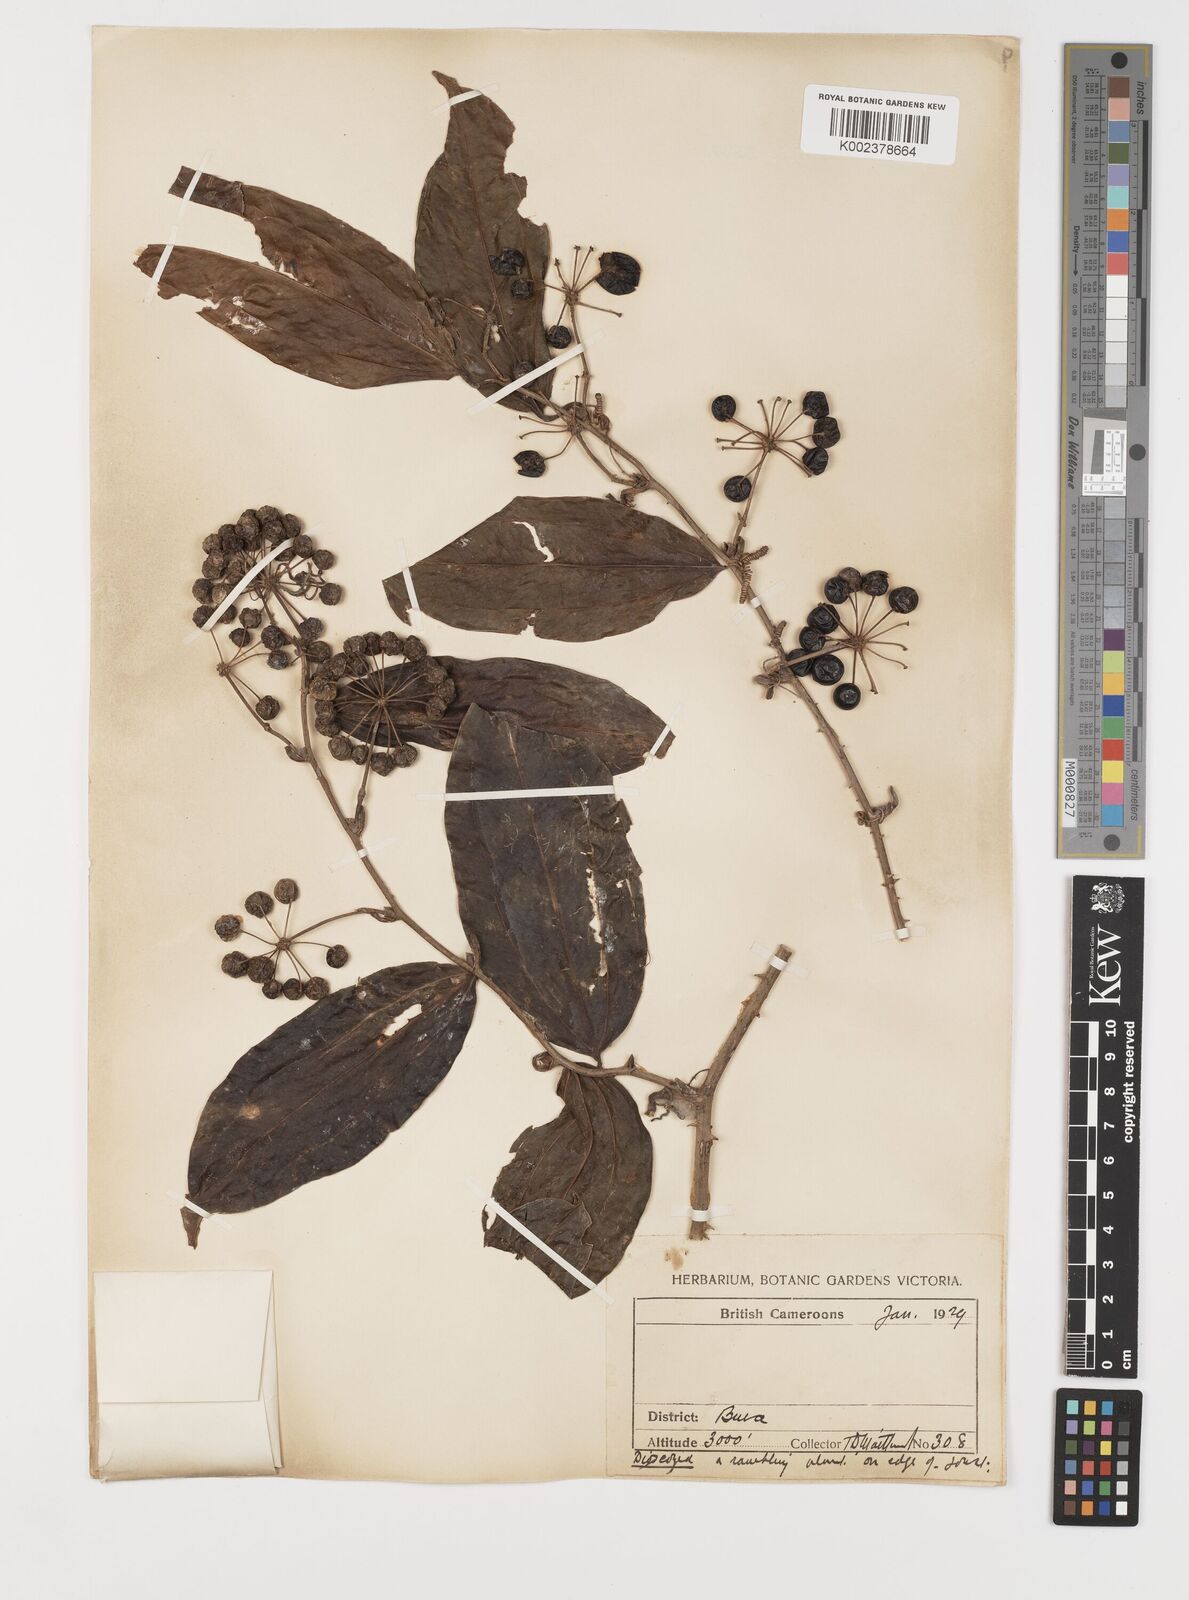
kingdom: Plantae
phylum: Tracheophyta
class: Liliopsida
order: Liliales
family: Smilacaceae
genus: Smilax
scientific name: Smilax anceps
